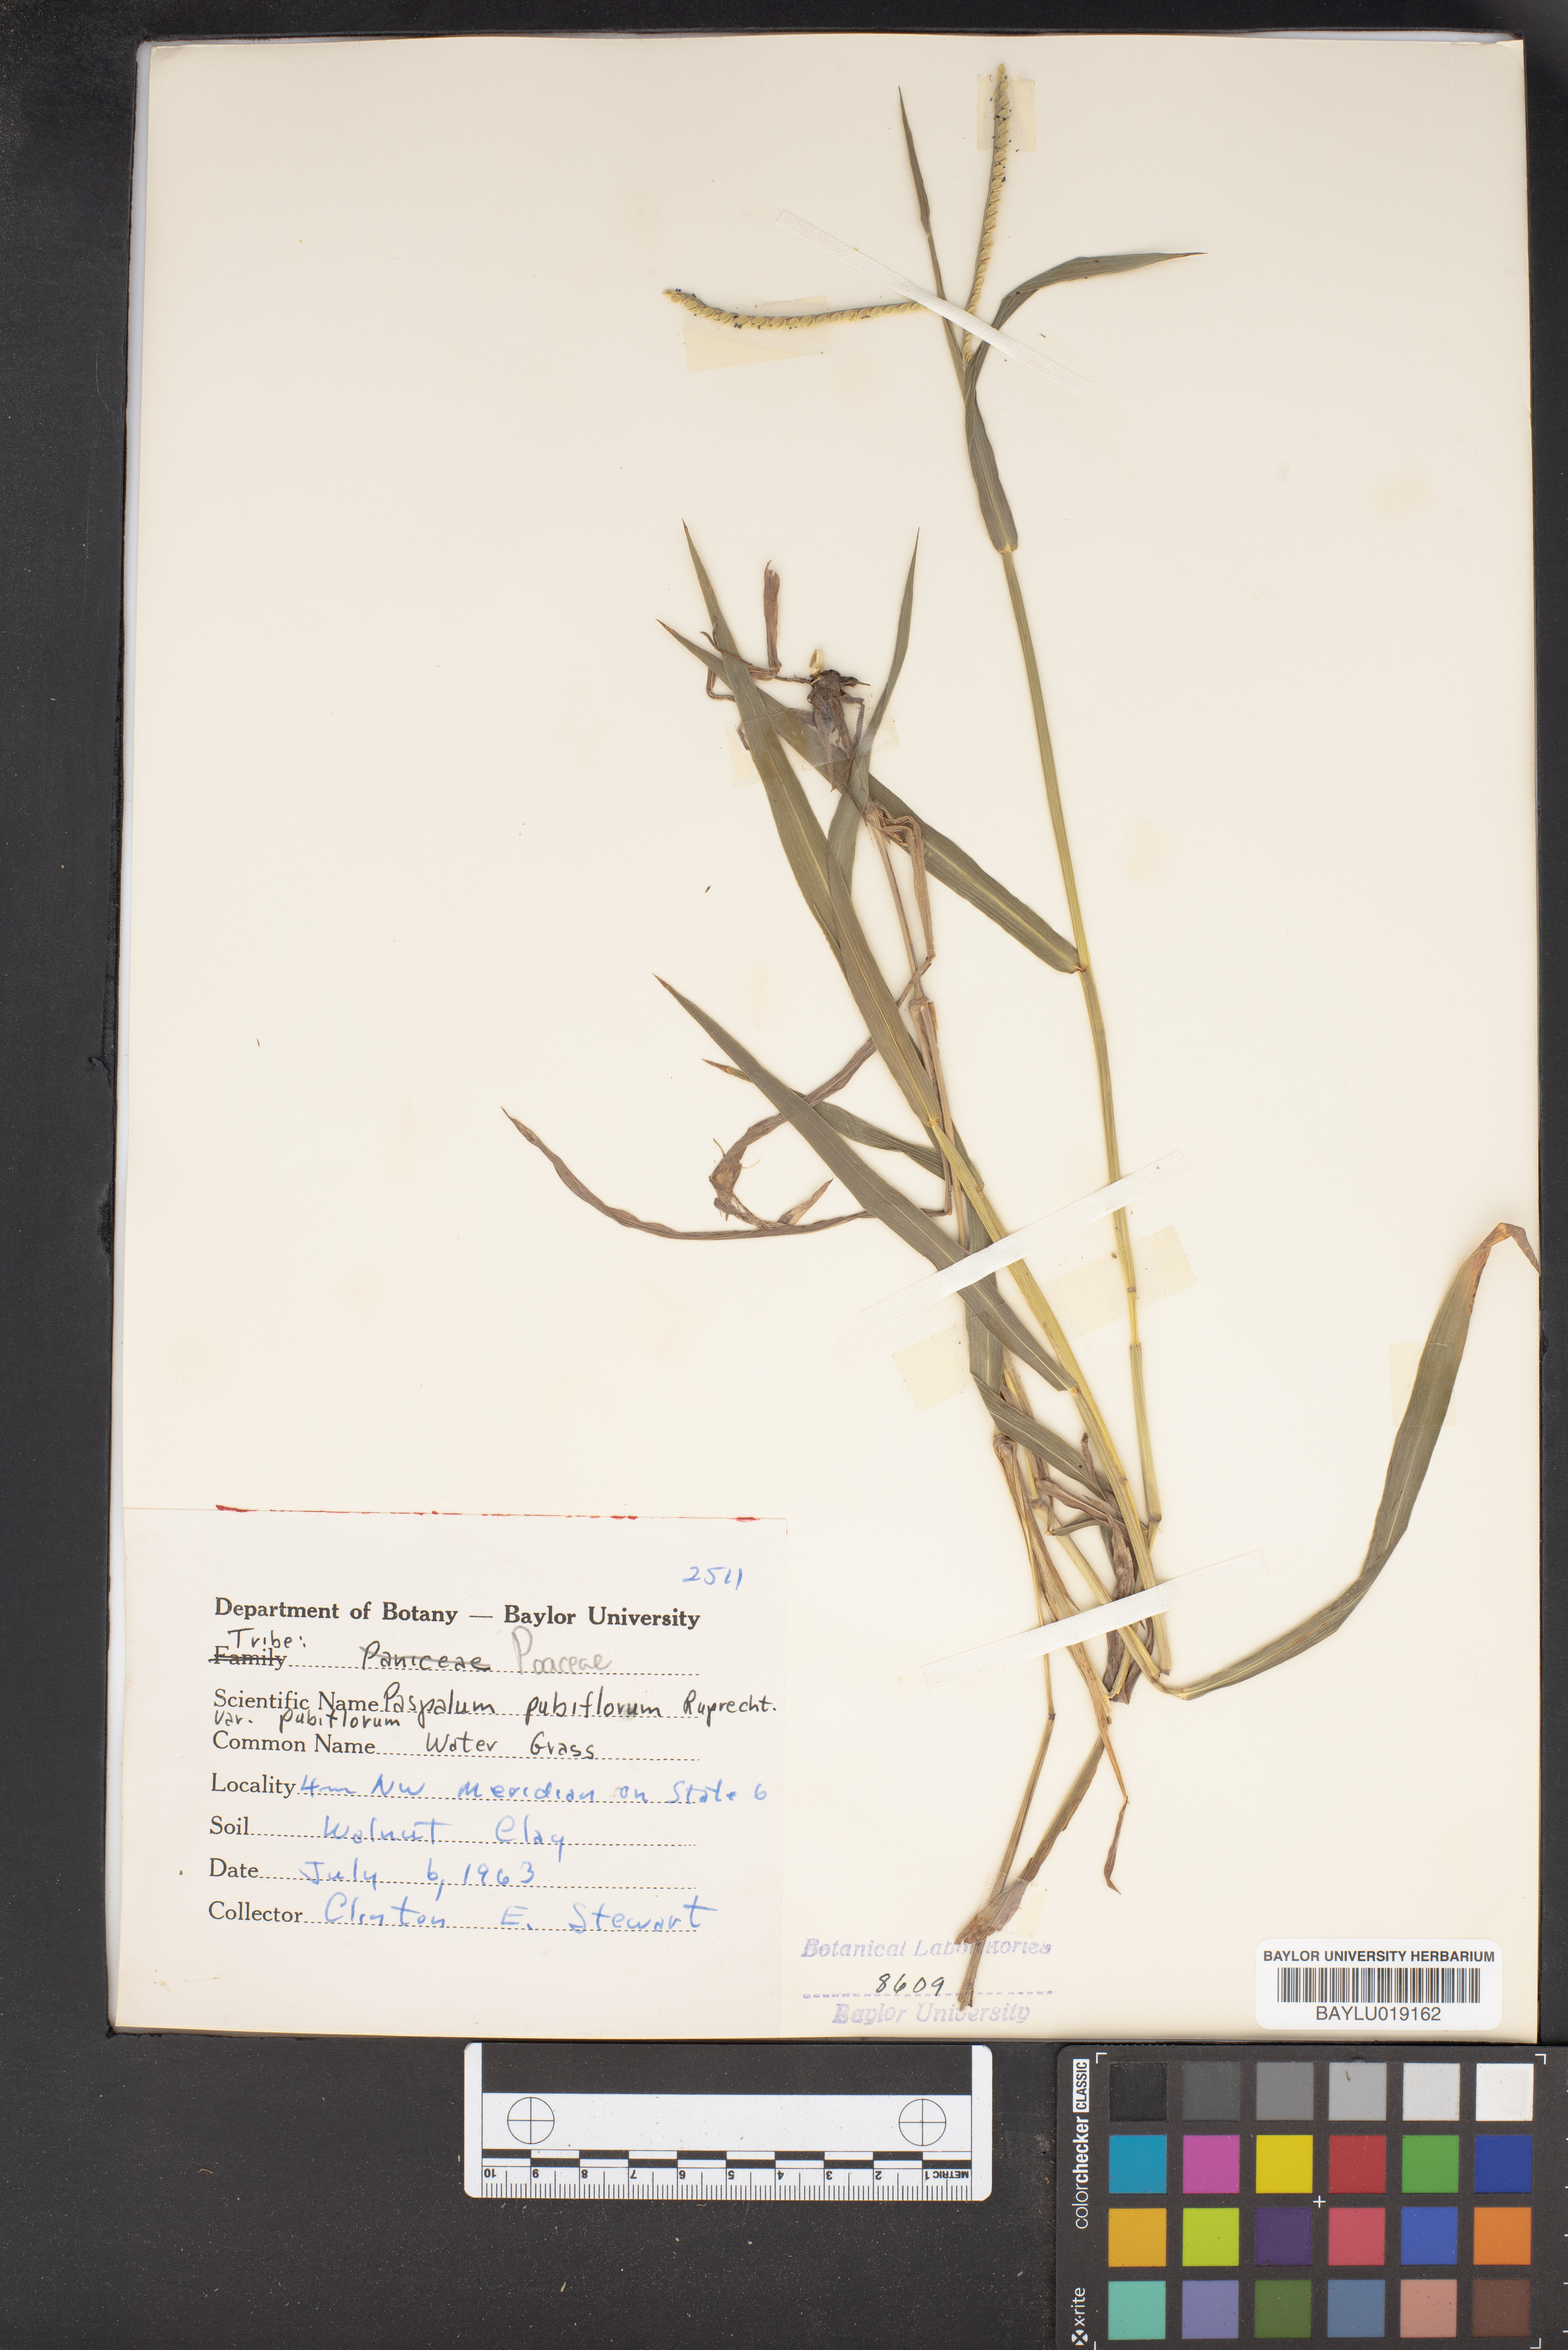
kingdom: Plantae
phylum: Tracheophyta
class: Liliopsida
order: Poales
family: Poaceae
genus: Paspalum
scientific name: Paspalum pubiflorum
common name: Hairy-seed paspalum
